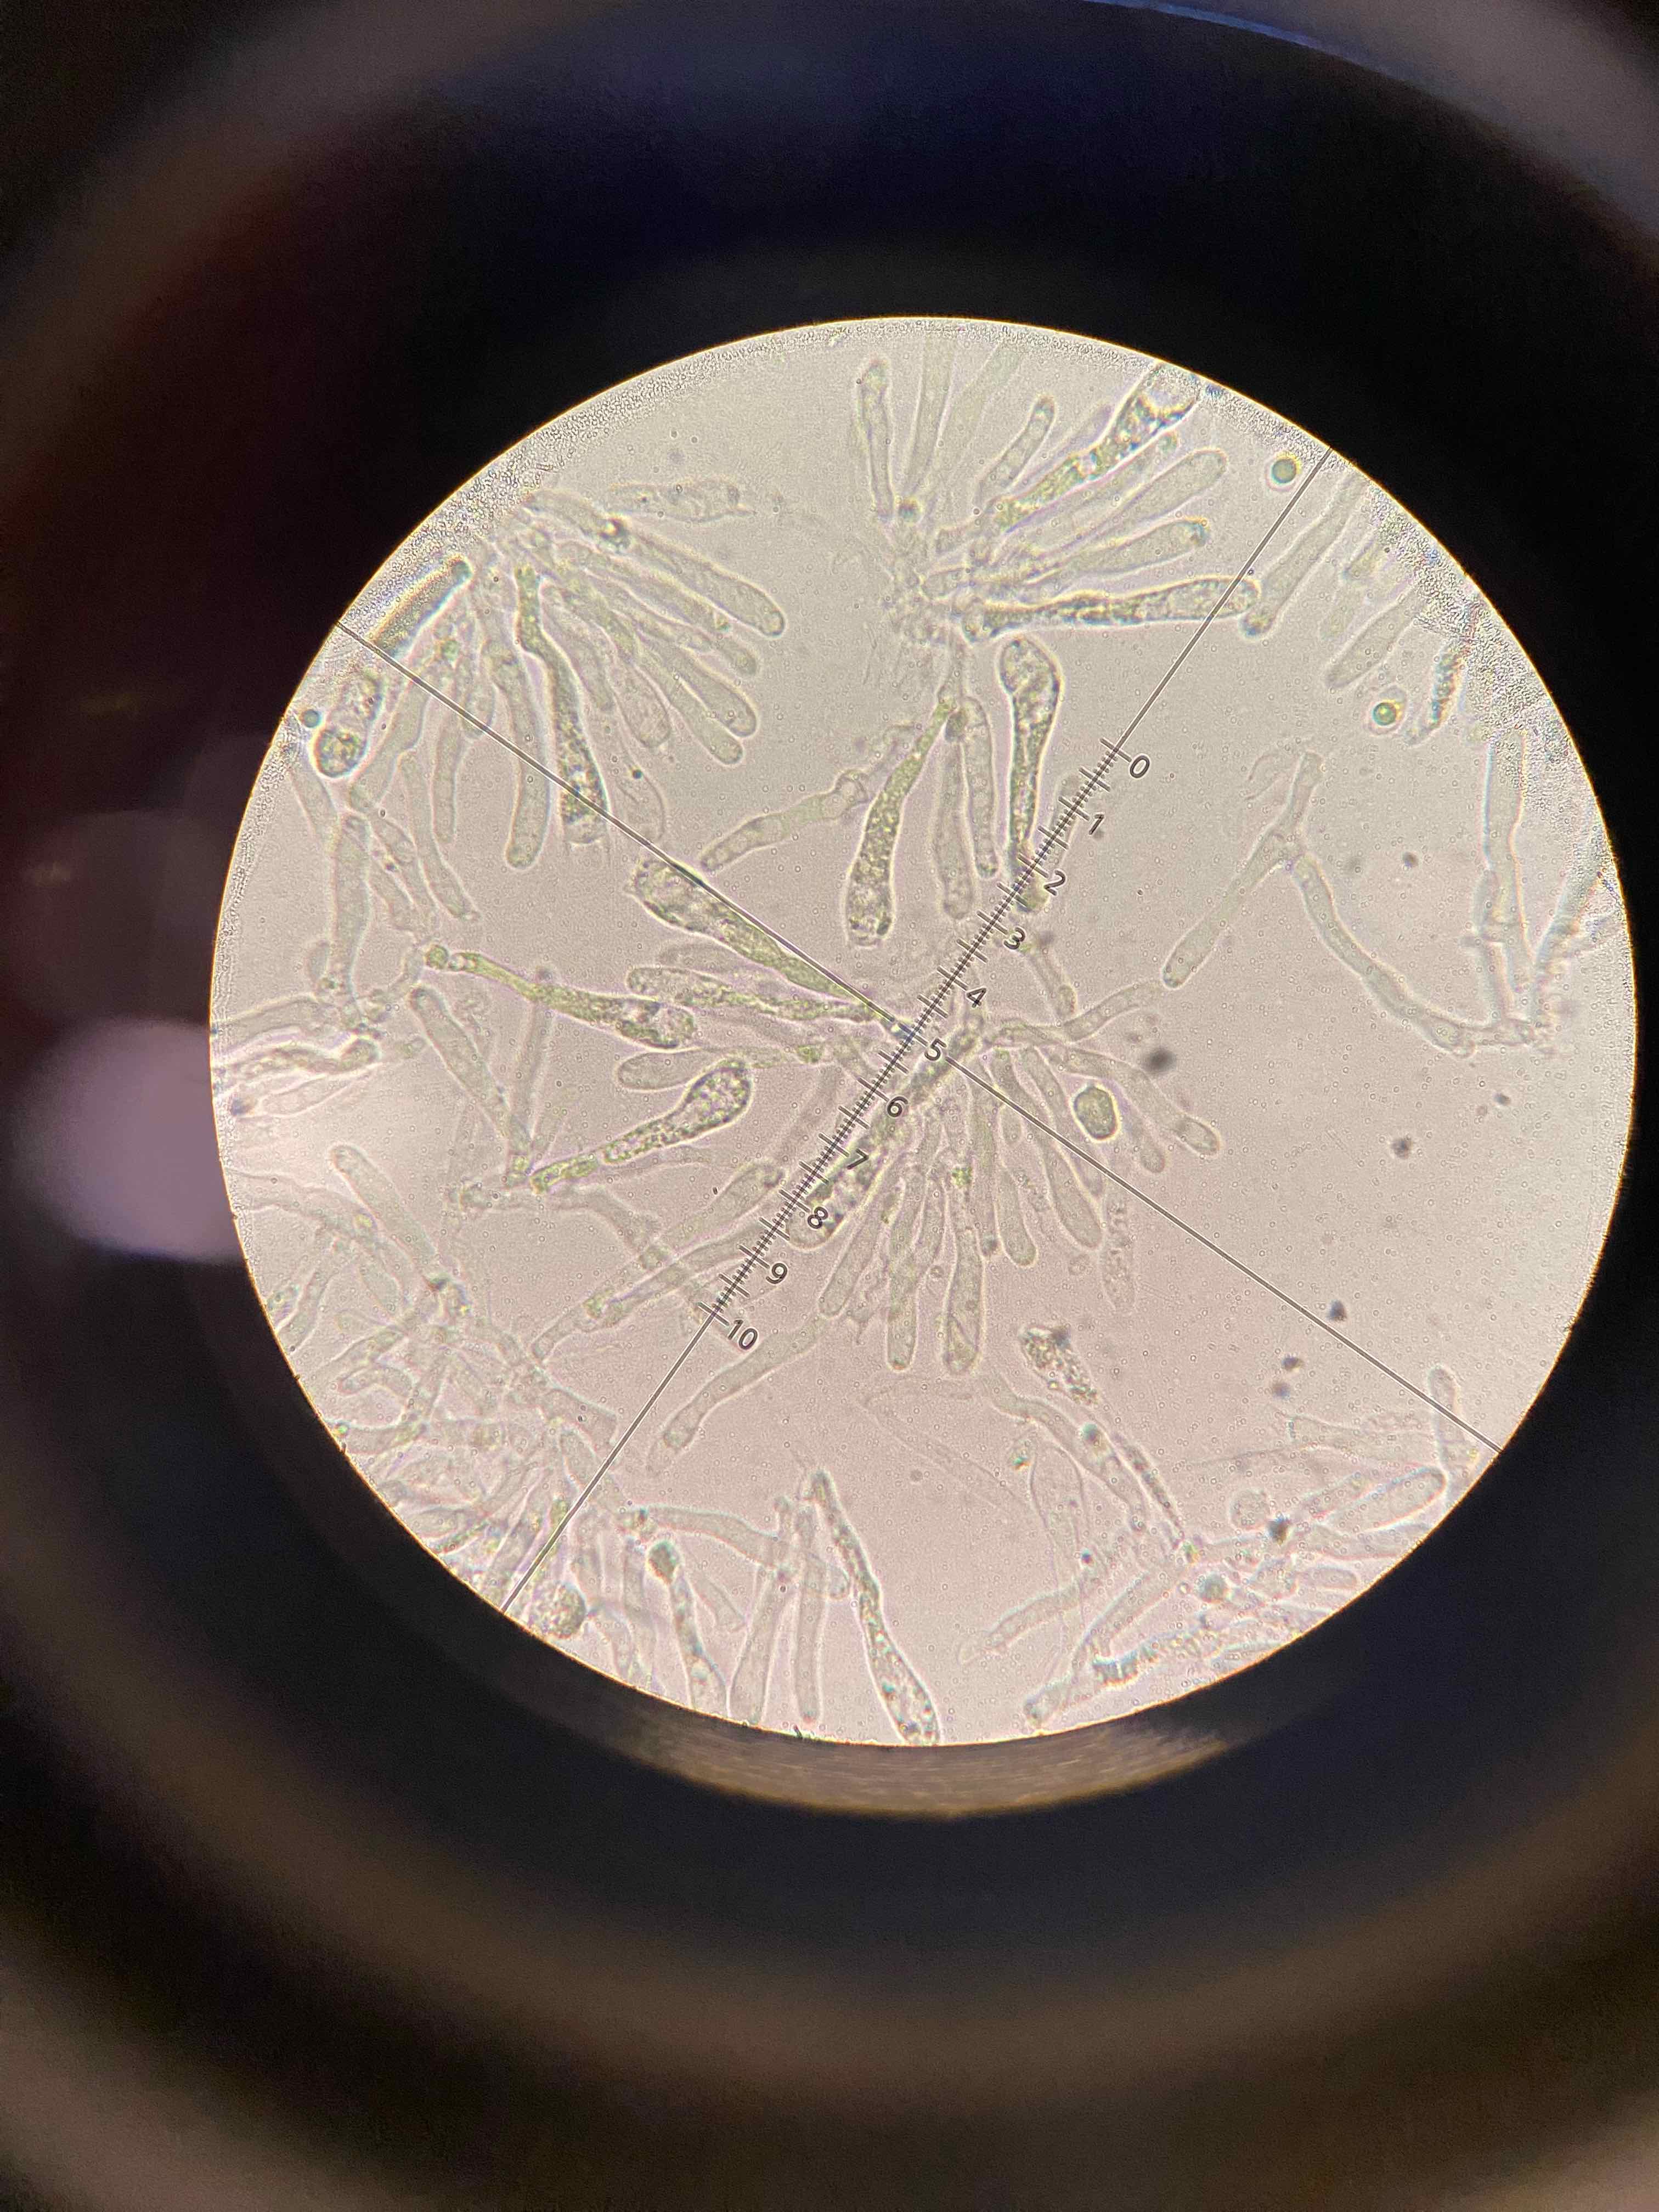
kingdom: Fungi
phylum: Basidiomycota
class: Agaricomycetes
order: Agaricales
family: Hygrophoraceae
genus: Hygrocybe
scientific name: Hygrocybe miniata
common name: mønje-vokshat
